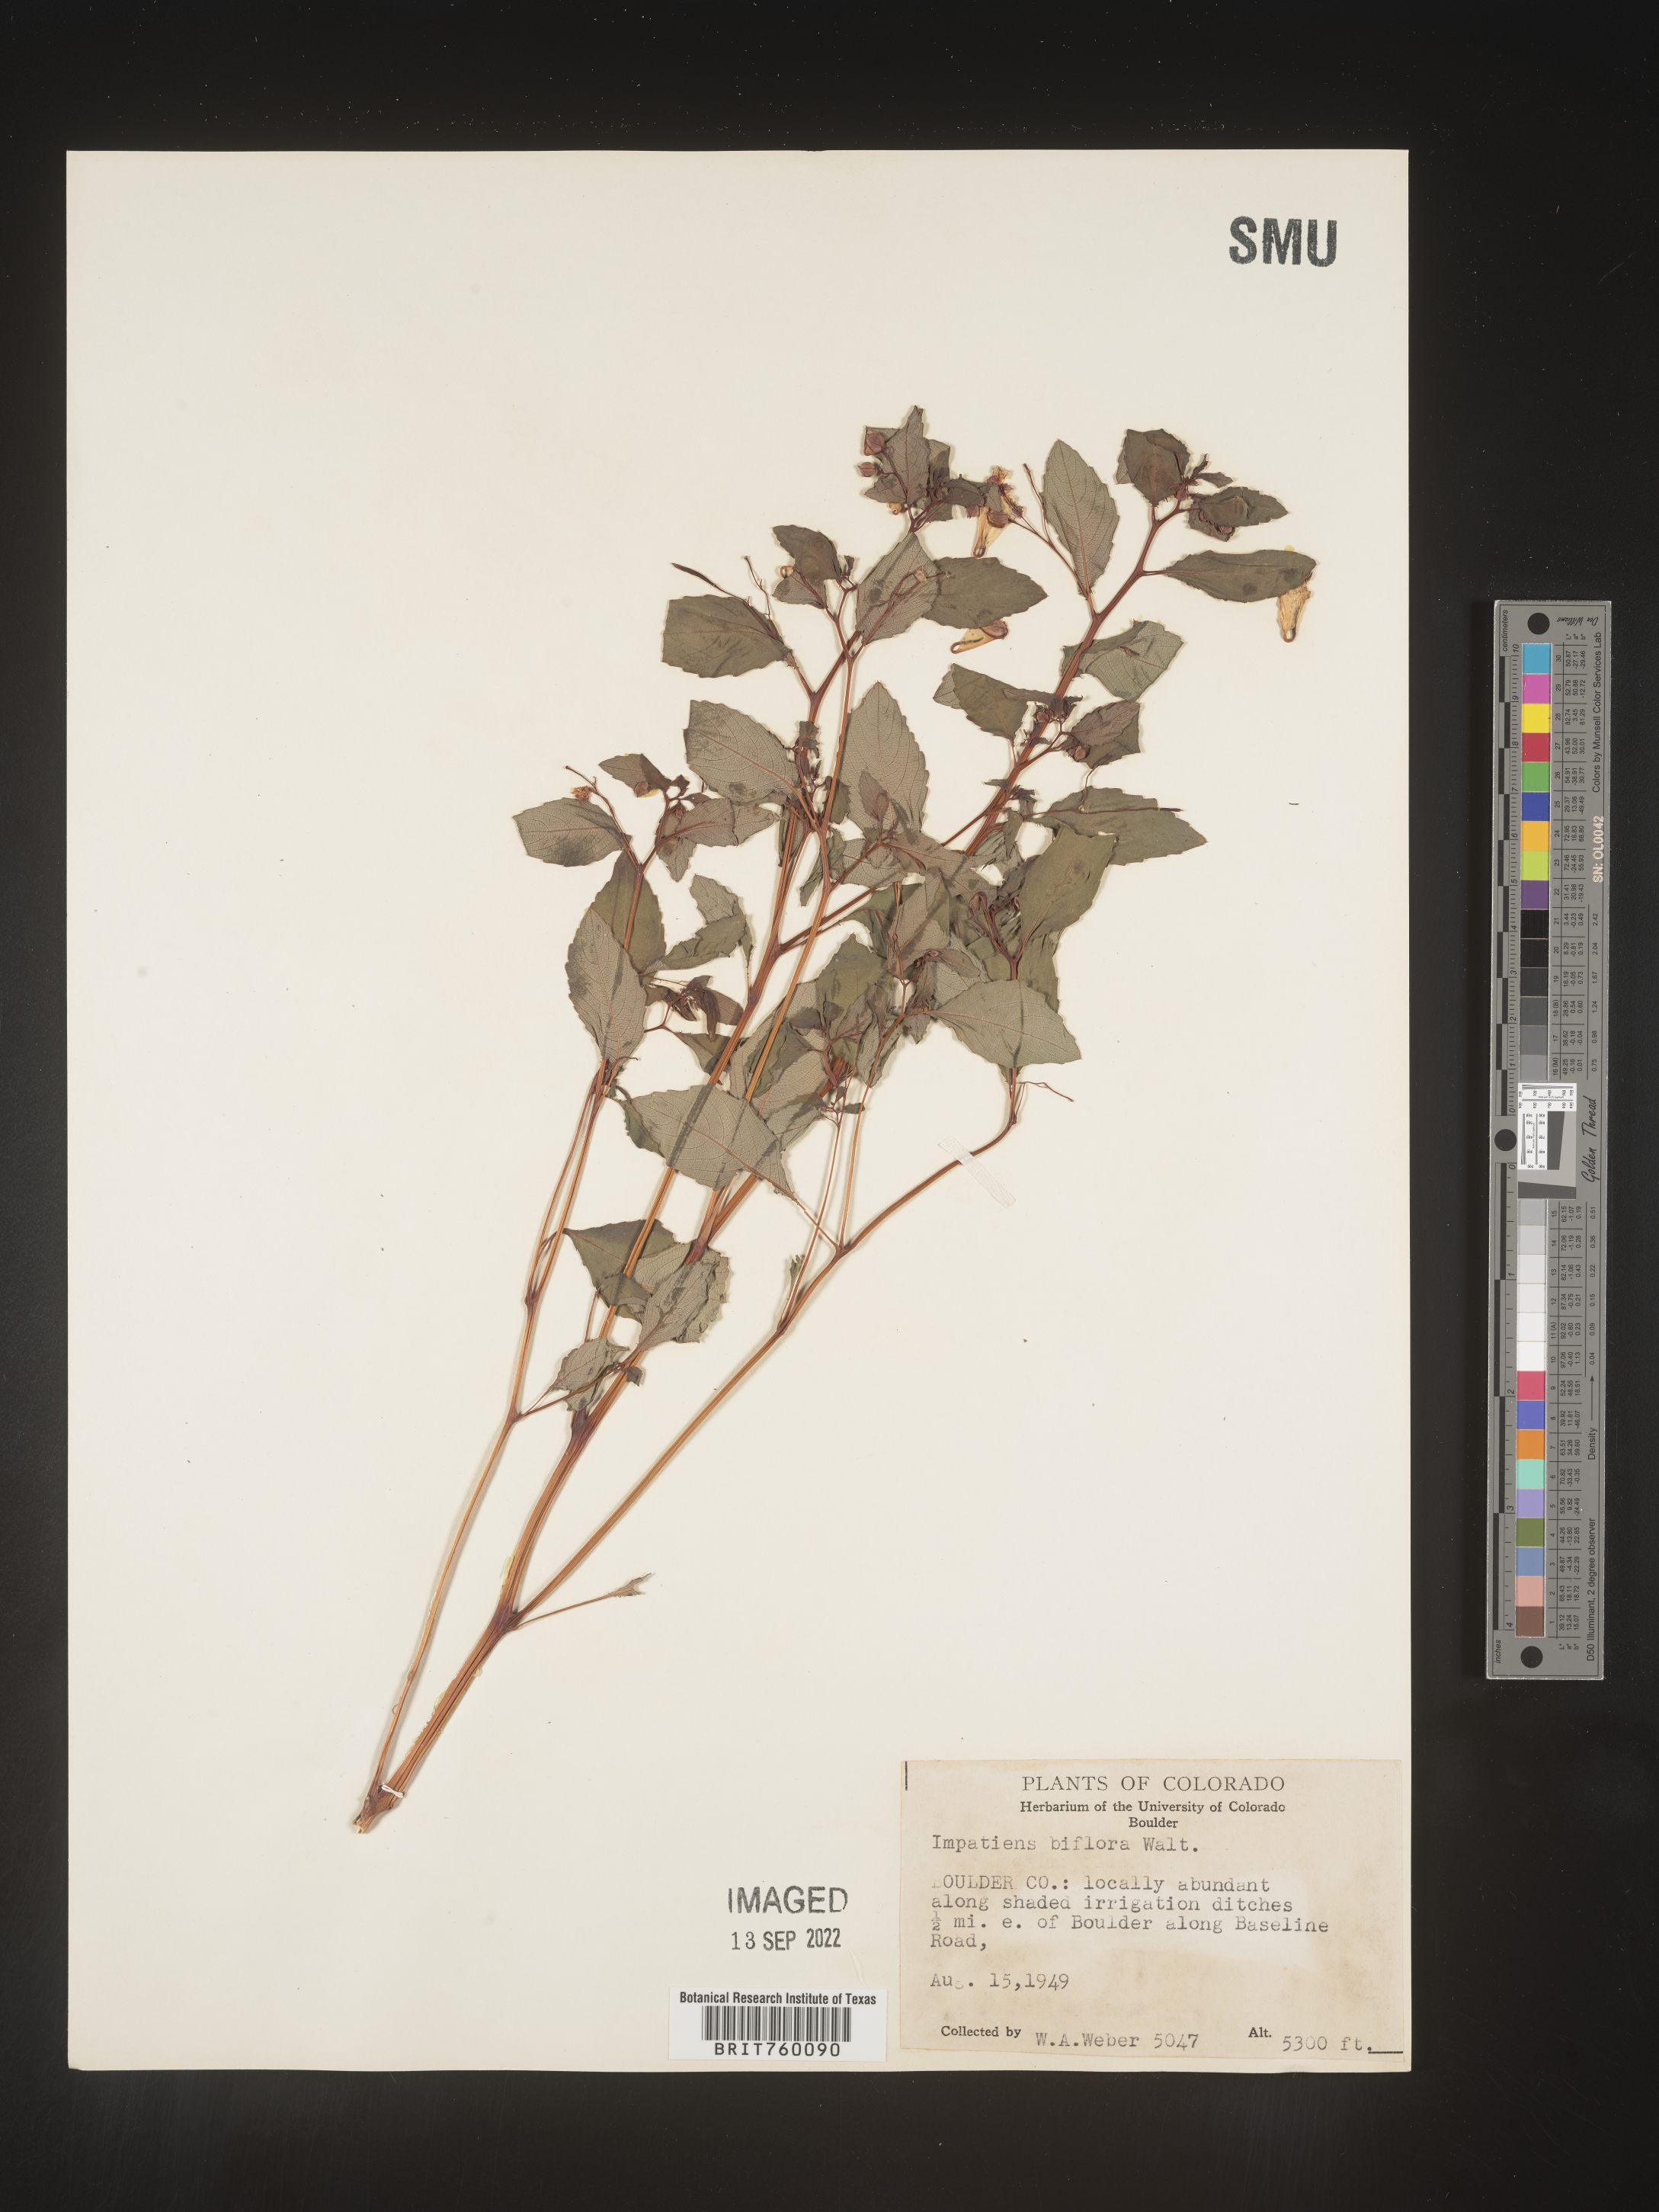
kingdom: Plantae
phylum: Tracheophyta
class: Magnoliopsida
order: Ericales
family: Balsaminaceae
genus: Impatiens
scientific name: Impatiens capensis
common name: Orange balsam
